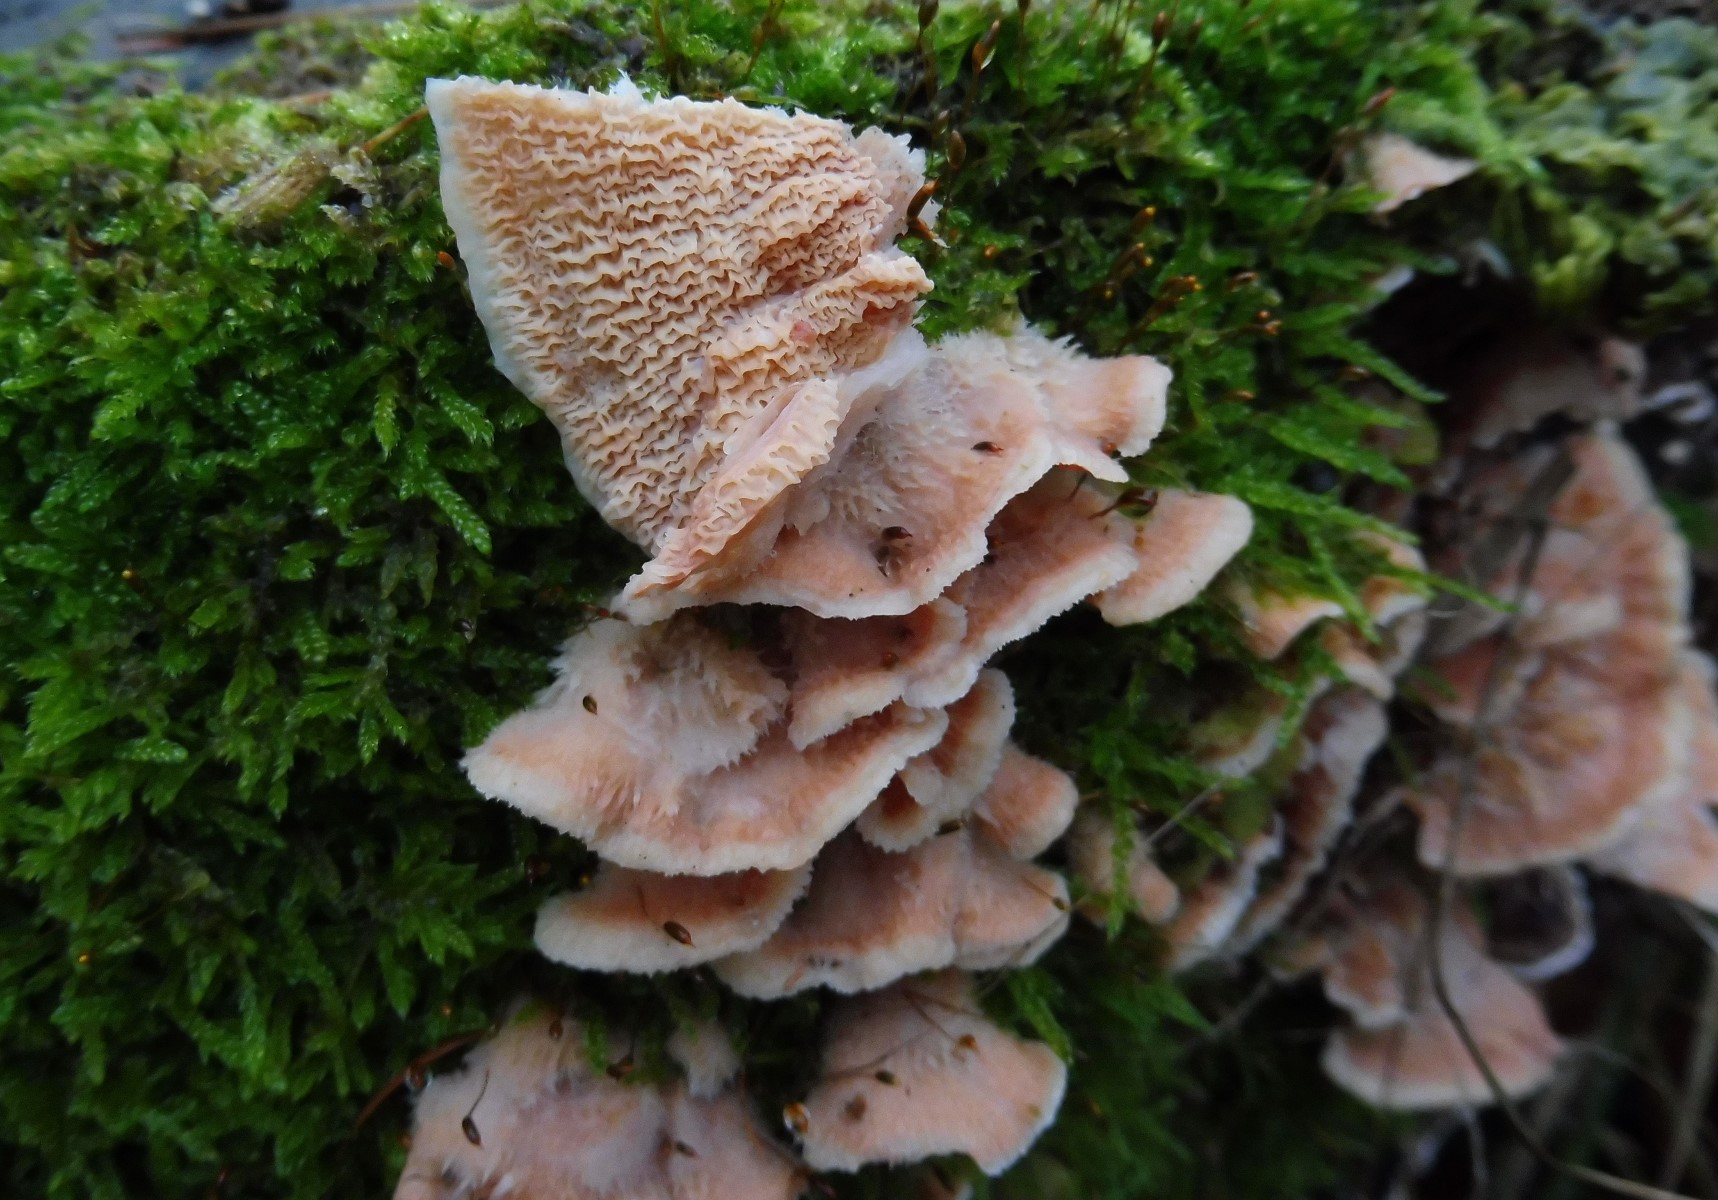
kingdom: Fungi
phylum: Basidiomycota
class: Agaricomycetes
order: Polyporales
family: Meruliaceae
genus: Phlebia
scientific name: Phlebia tremellosa
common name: bævrende åresvamp
